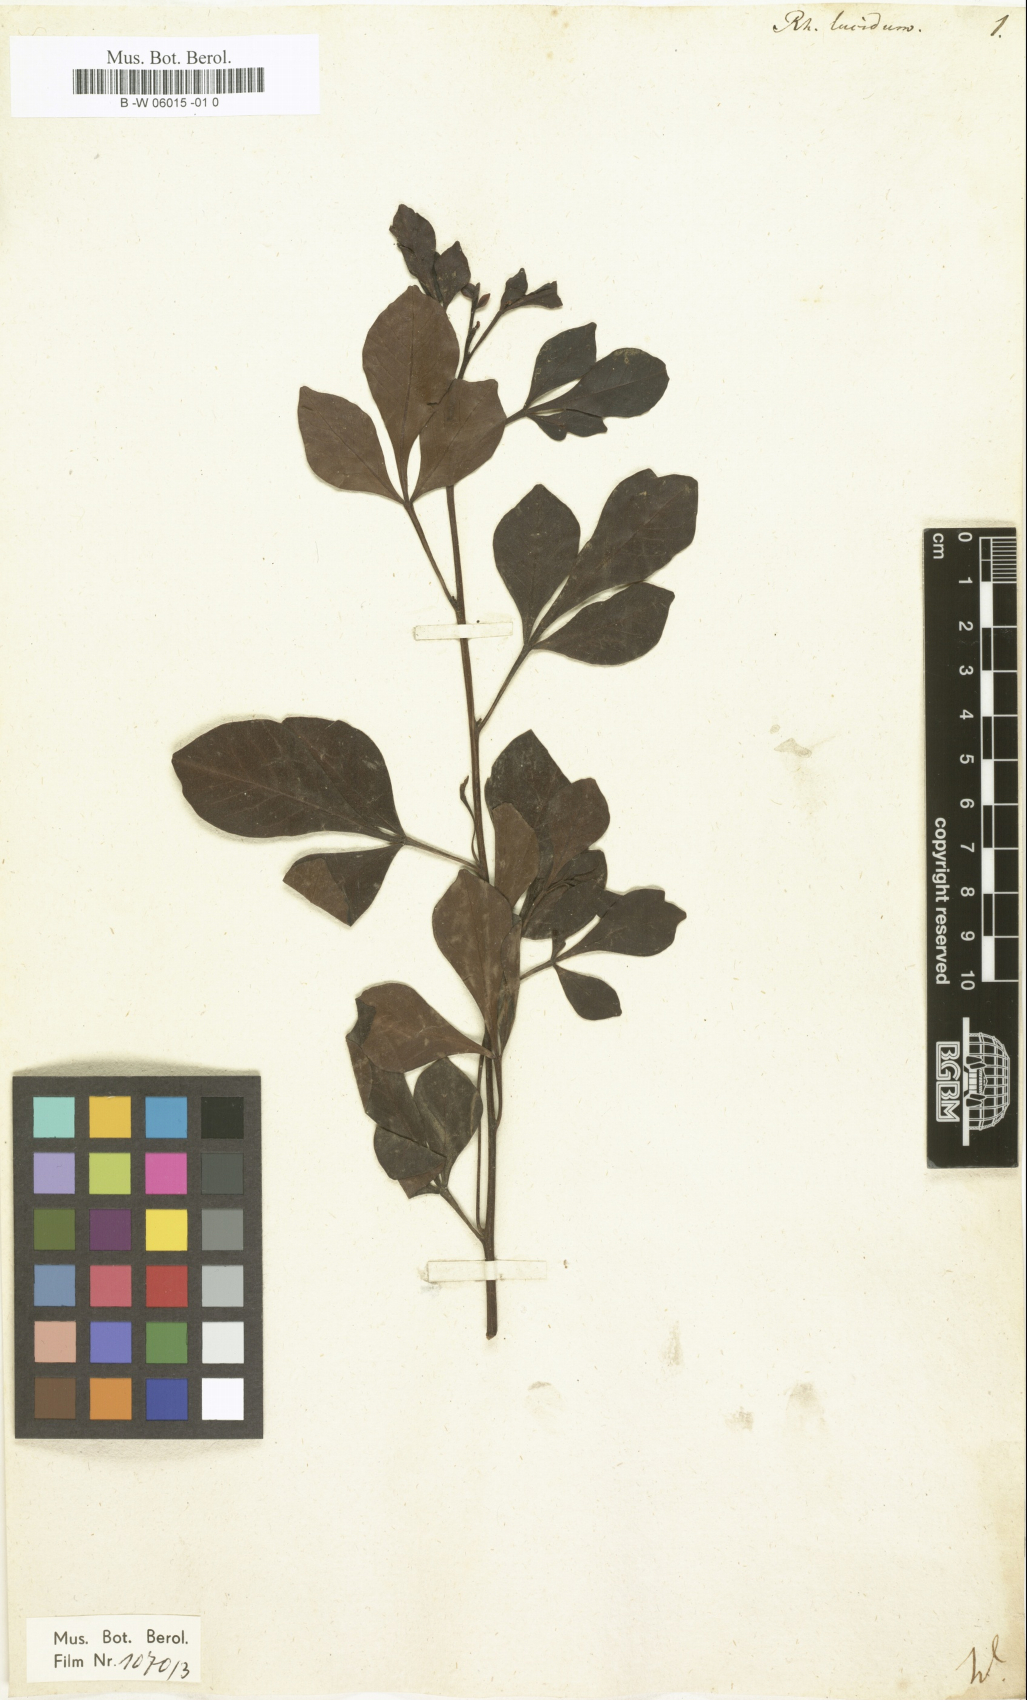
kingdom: Plantae
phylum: Tracheophyta
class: Magnoliopsida
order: Sapindales
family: Anacardiaceae
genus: Searsia
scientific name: Searsia
